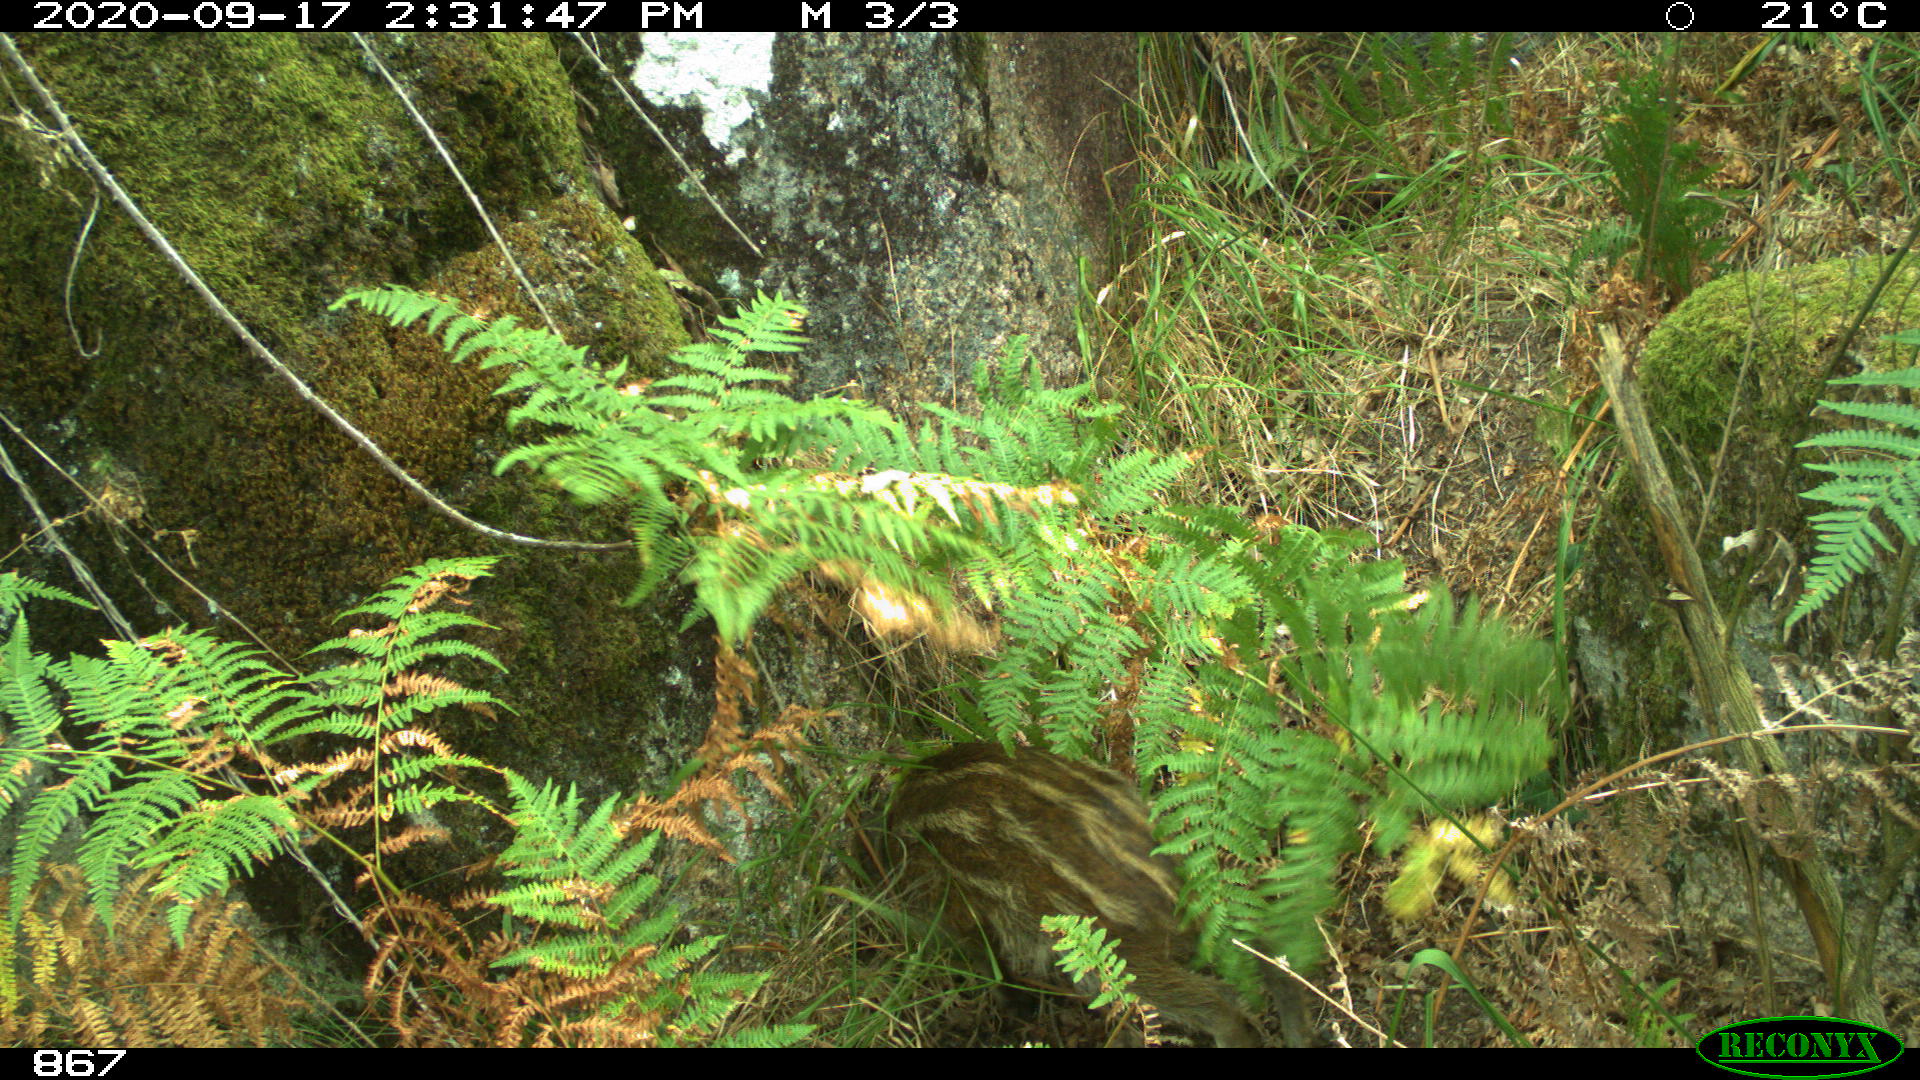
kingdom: Animalia
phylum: Chordata
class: Mammalia
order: Artiodactyla
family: Suidae
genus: Sus
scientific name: Sus scrofa
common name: Wild boar
